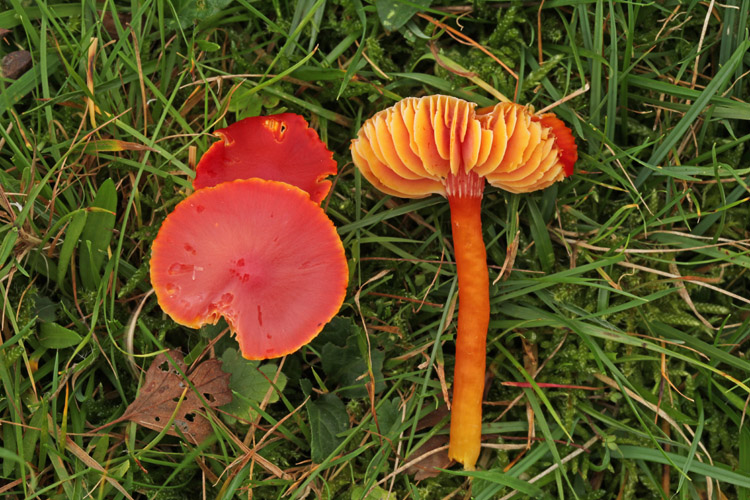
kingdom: Fungi
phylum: Basidiomycota
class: Agaricomycetes
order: Agaricales
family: Hygrophoraceae
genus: Hygrocybe
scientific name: Hygrocybe coccinea
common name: cinnober-vokshat
